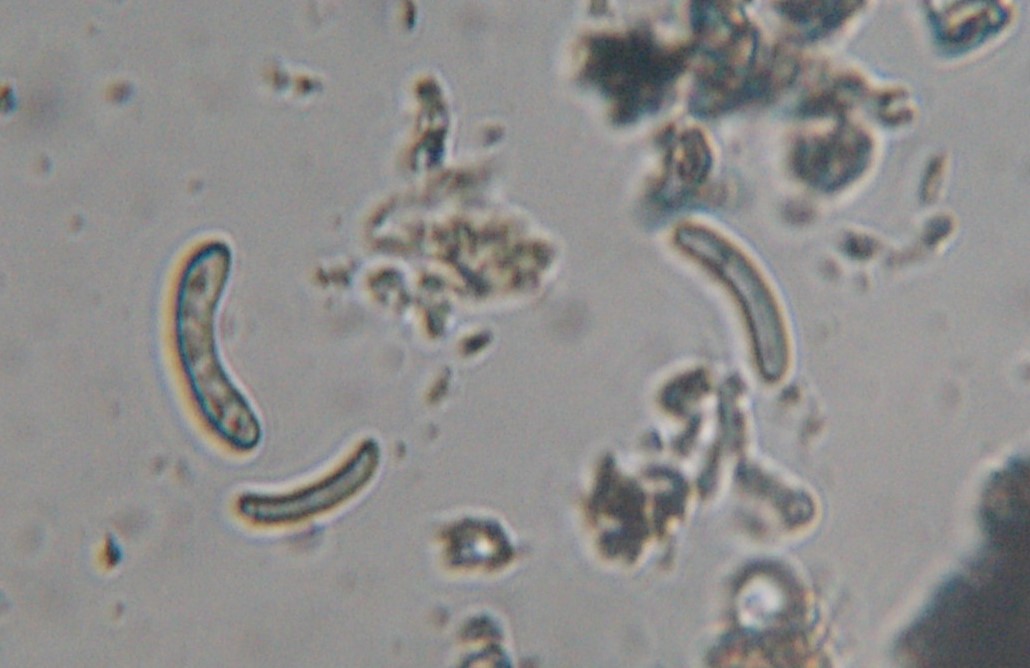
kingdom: Fungi
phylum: Ascomycota
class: Sordariomycetes
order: Xylariales
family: Diatrypaceae
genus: Eutypella
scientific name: Eutypella quaternata
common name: bøge-korsprik
